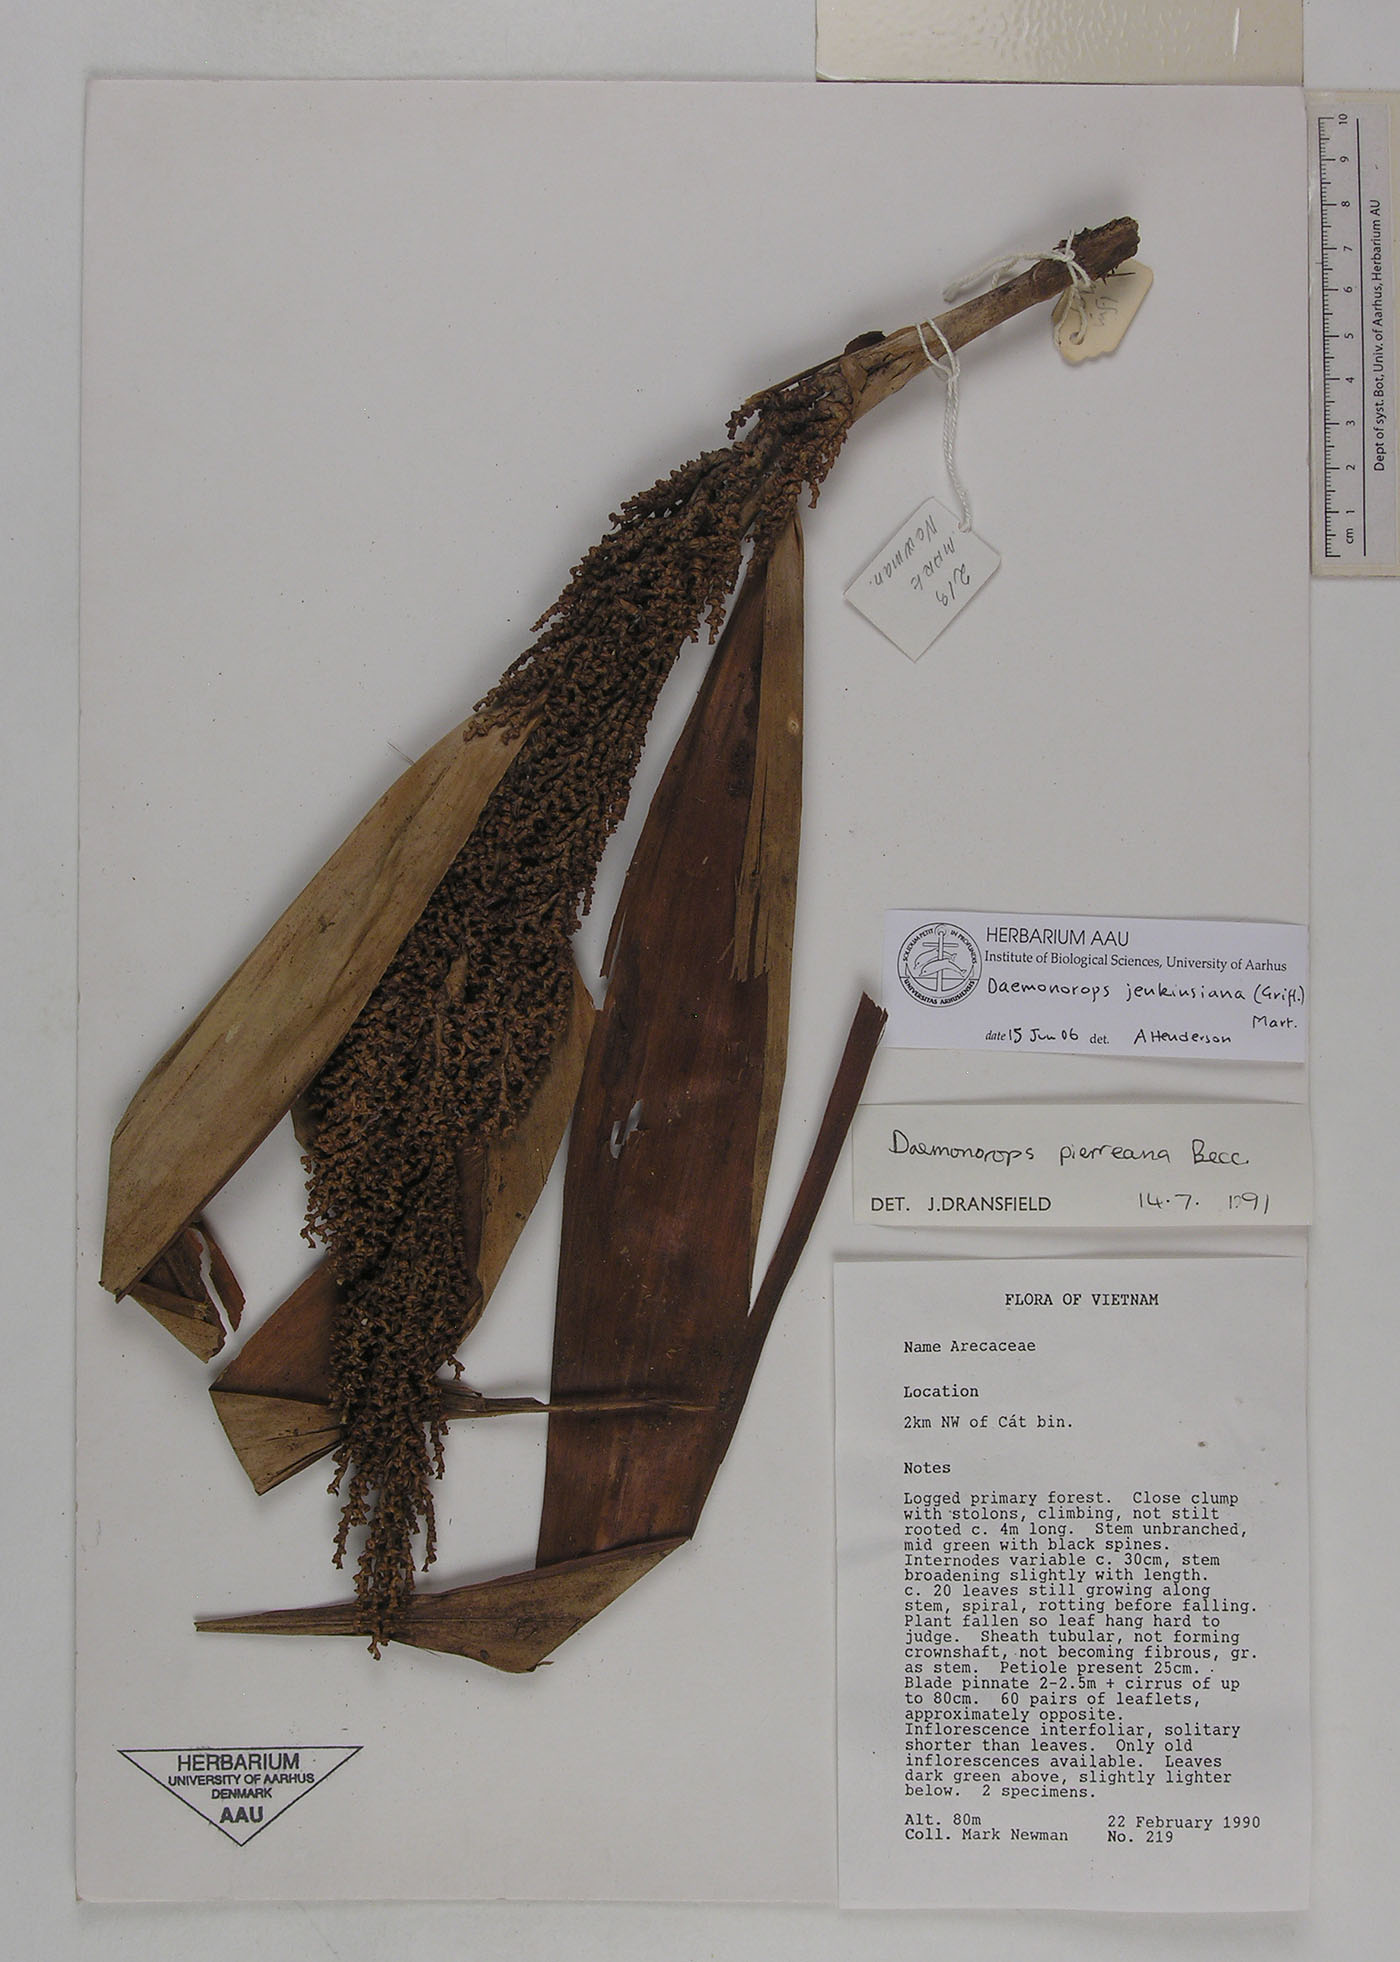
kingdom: Plantae
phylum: Tracheophyta
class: Liliopsida
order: Arecales
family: Arecaceae
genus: Calamus
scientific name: Calamus melanochaetes
